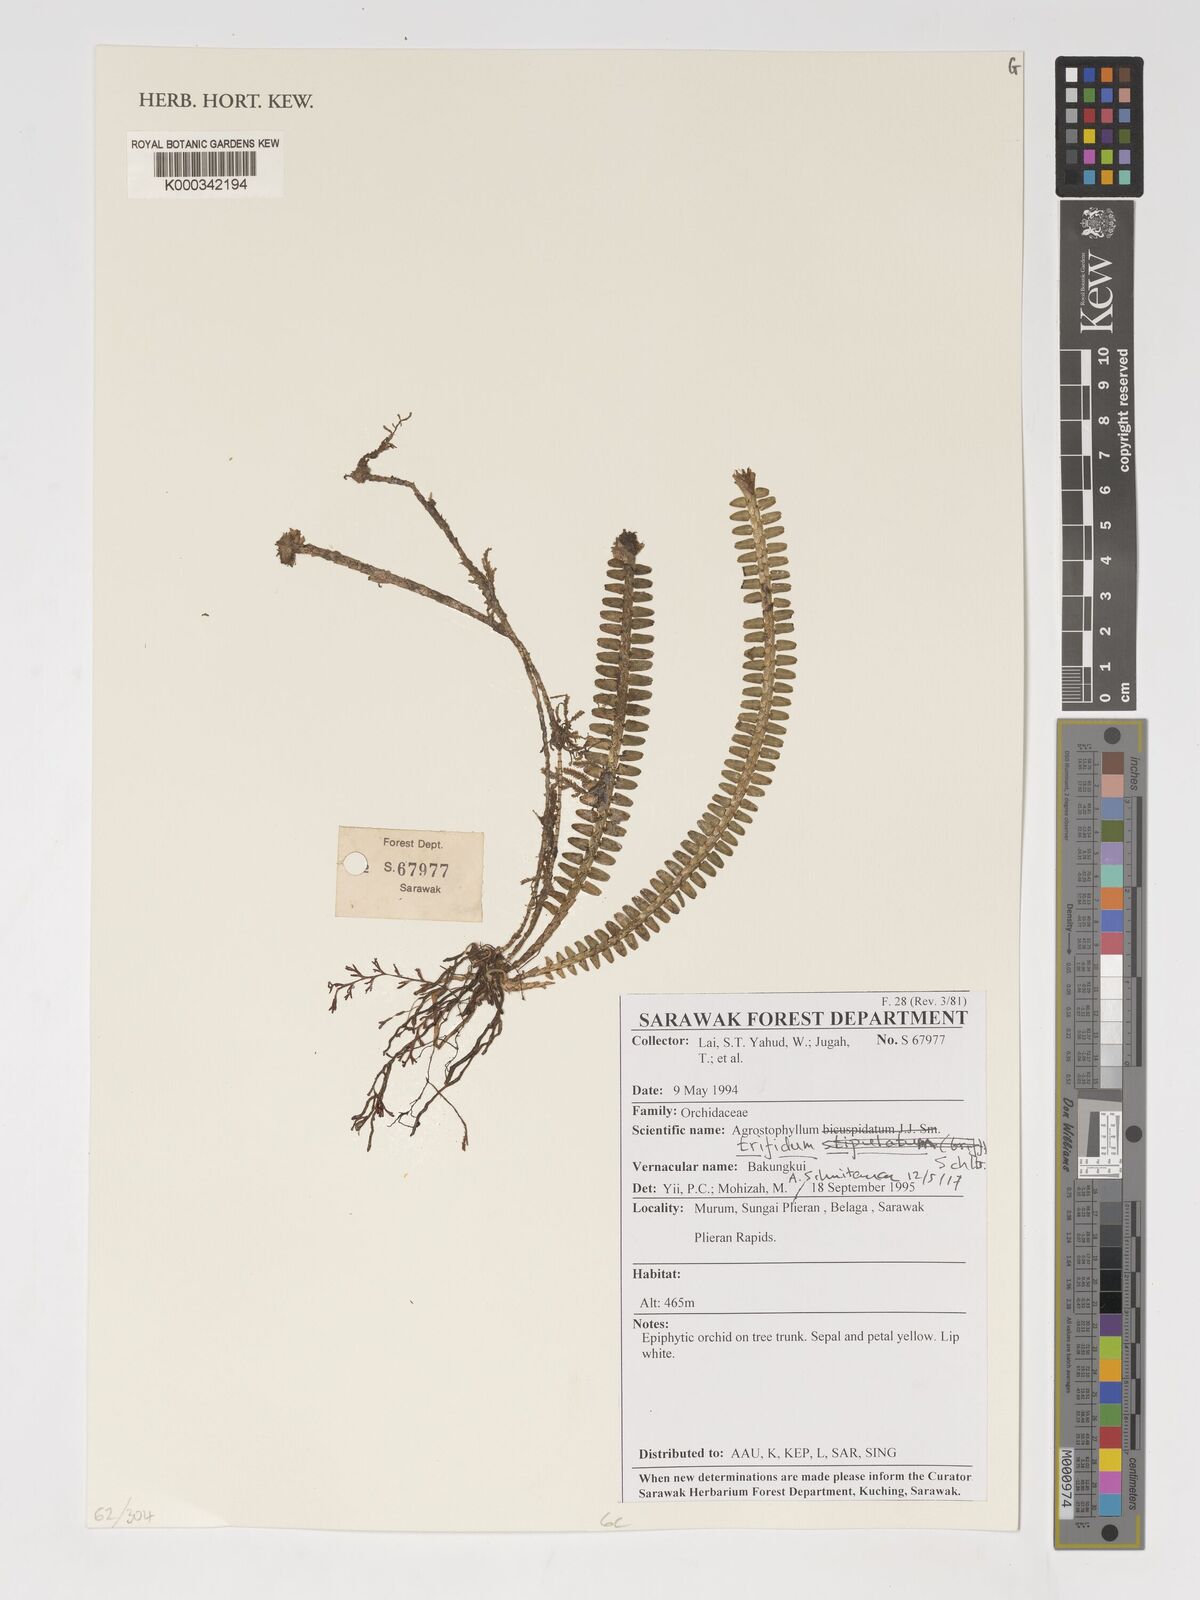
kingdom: Plantae
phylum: Tracheophyta
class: Liliopsida
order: Asparagales
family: Orchidaceae
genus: Agrostophyllum
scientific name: Agrostophyllum trifidum
